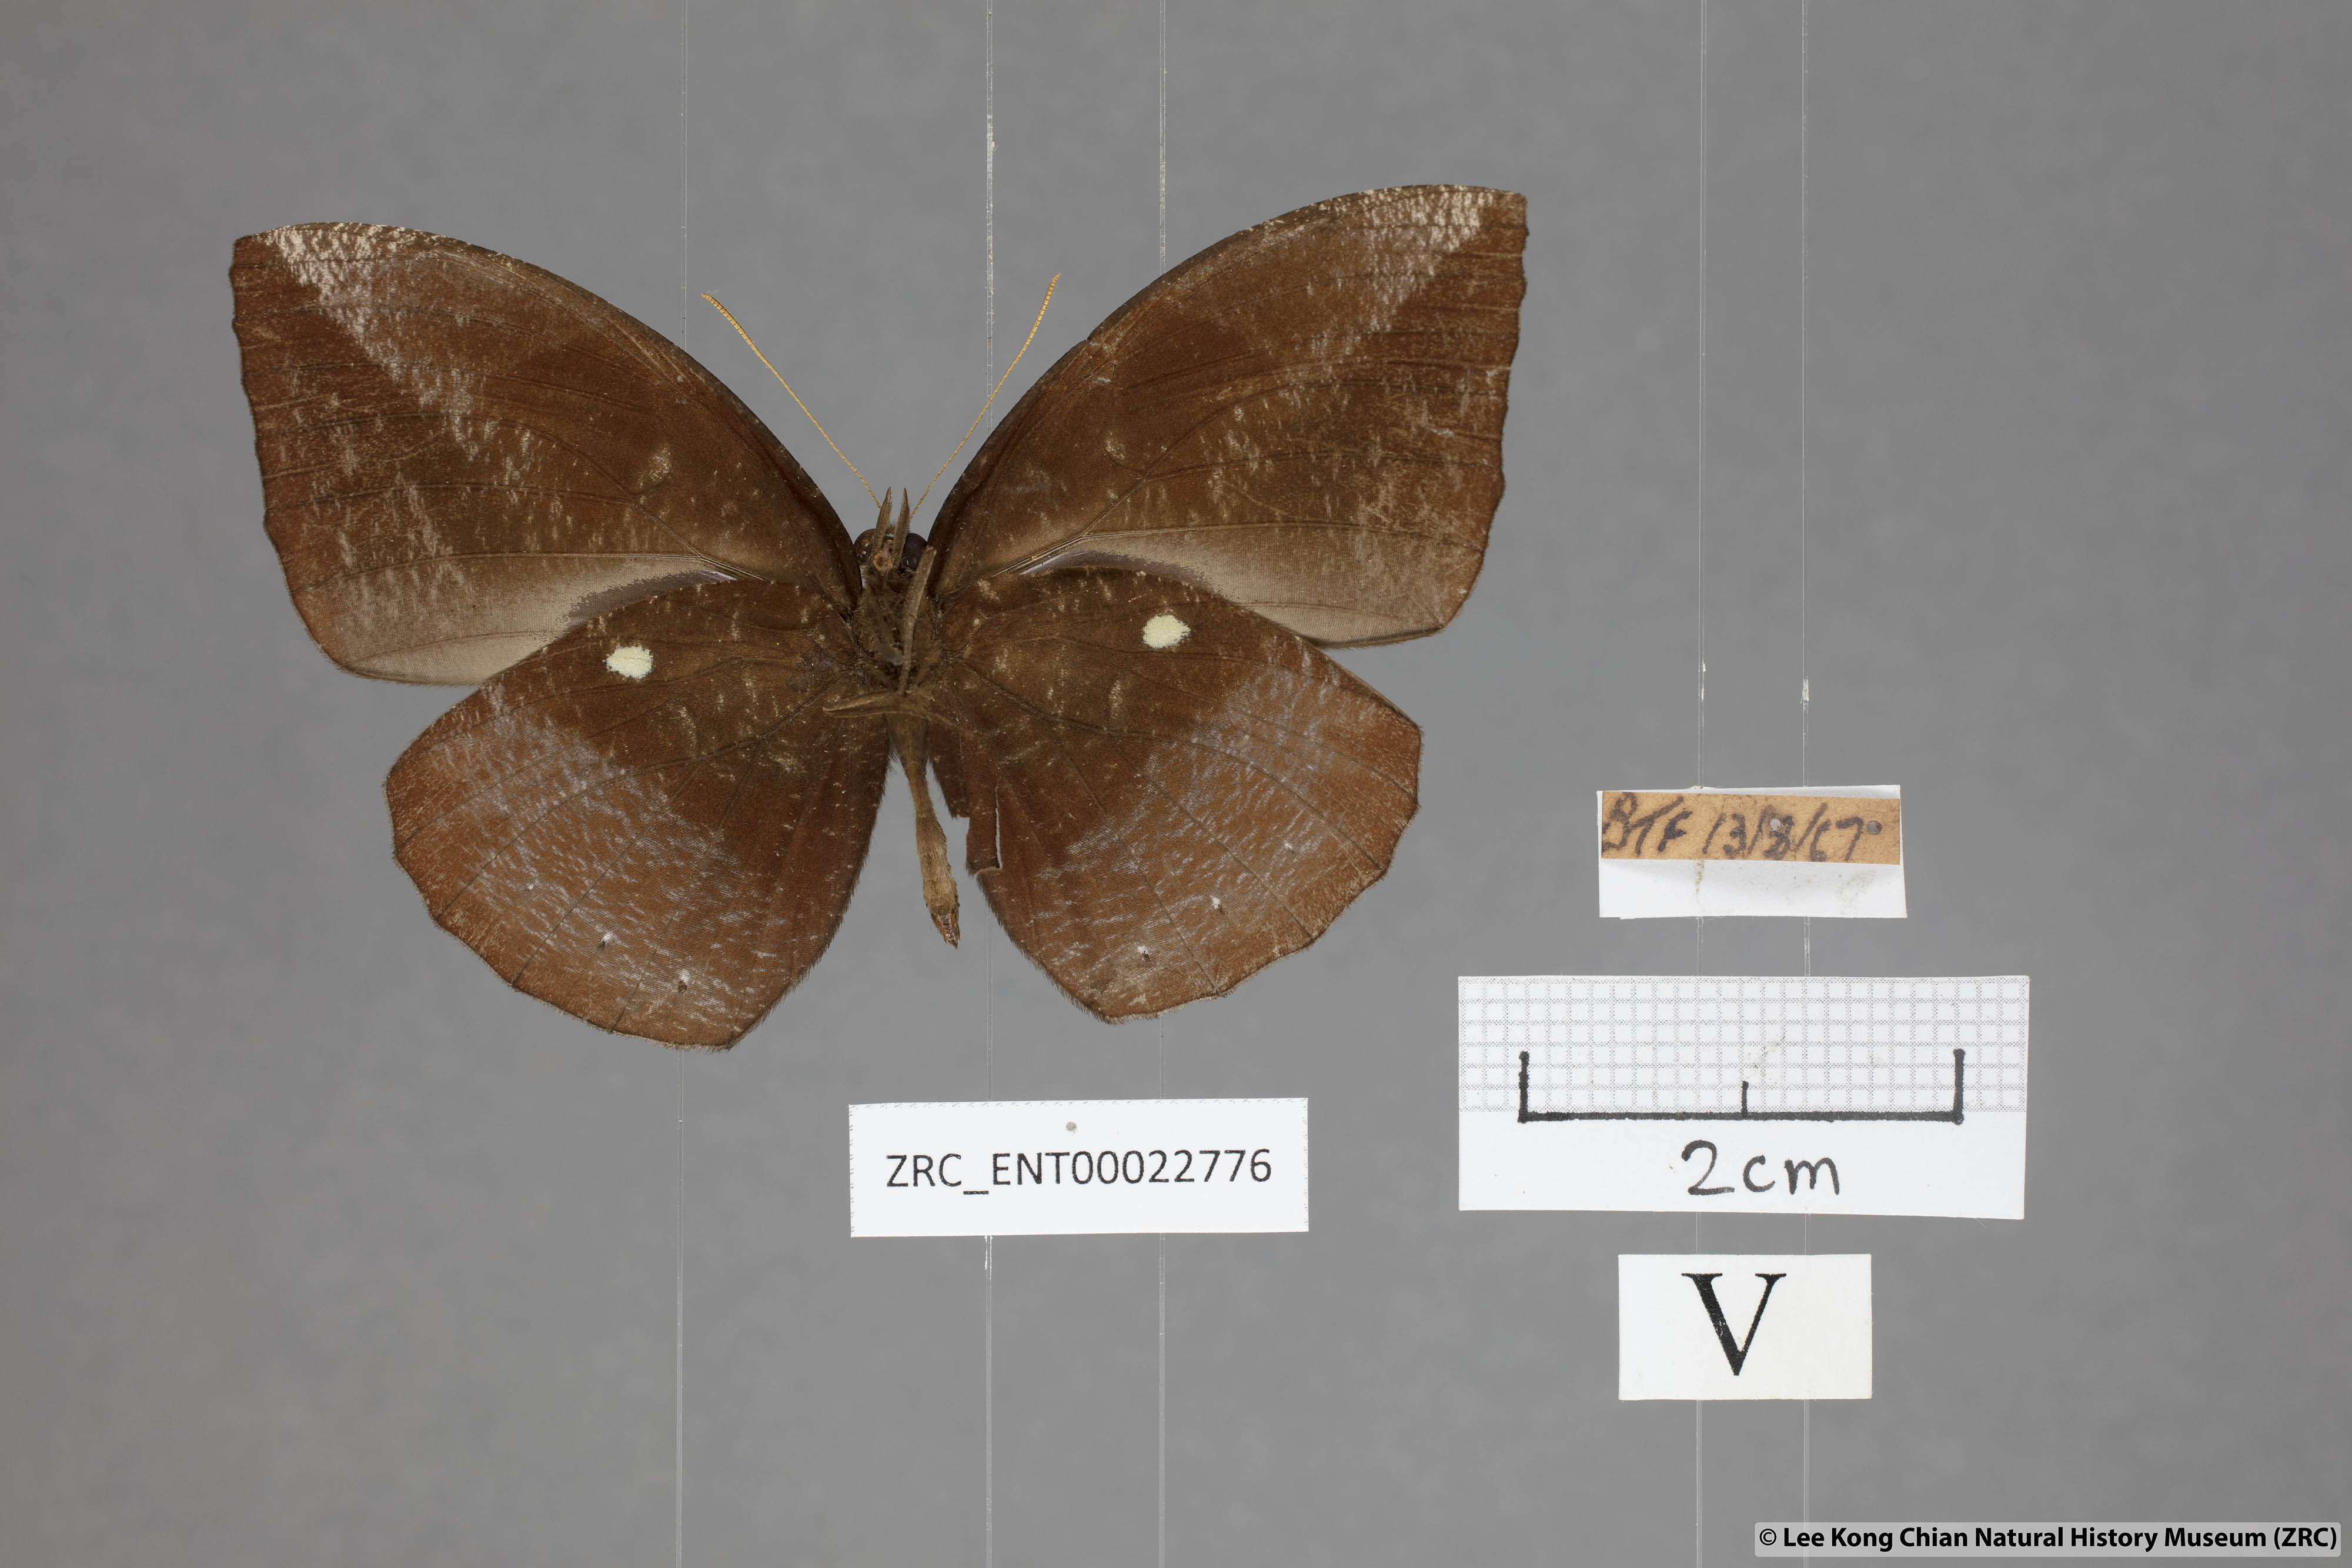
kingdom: Animalia
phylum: Arthropoda
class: Insecta
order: Lepidoptera
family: Nymphalidae
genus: Elymnias
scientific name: Elymnias penanga
